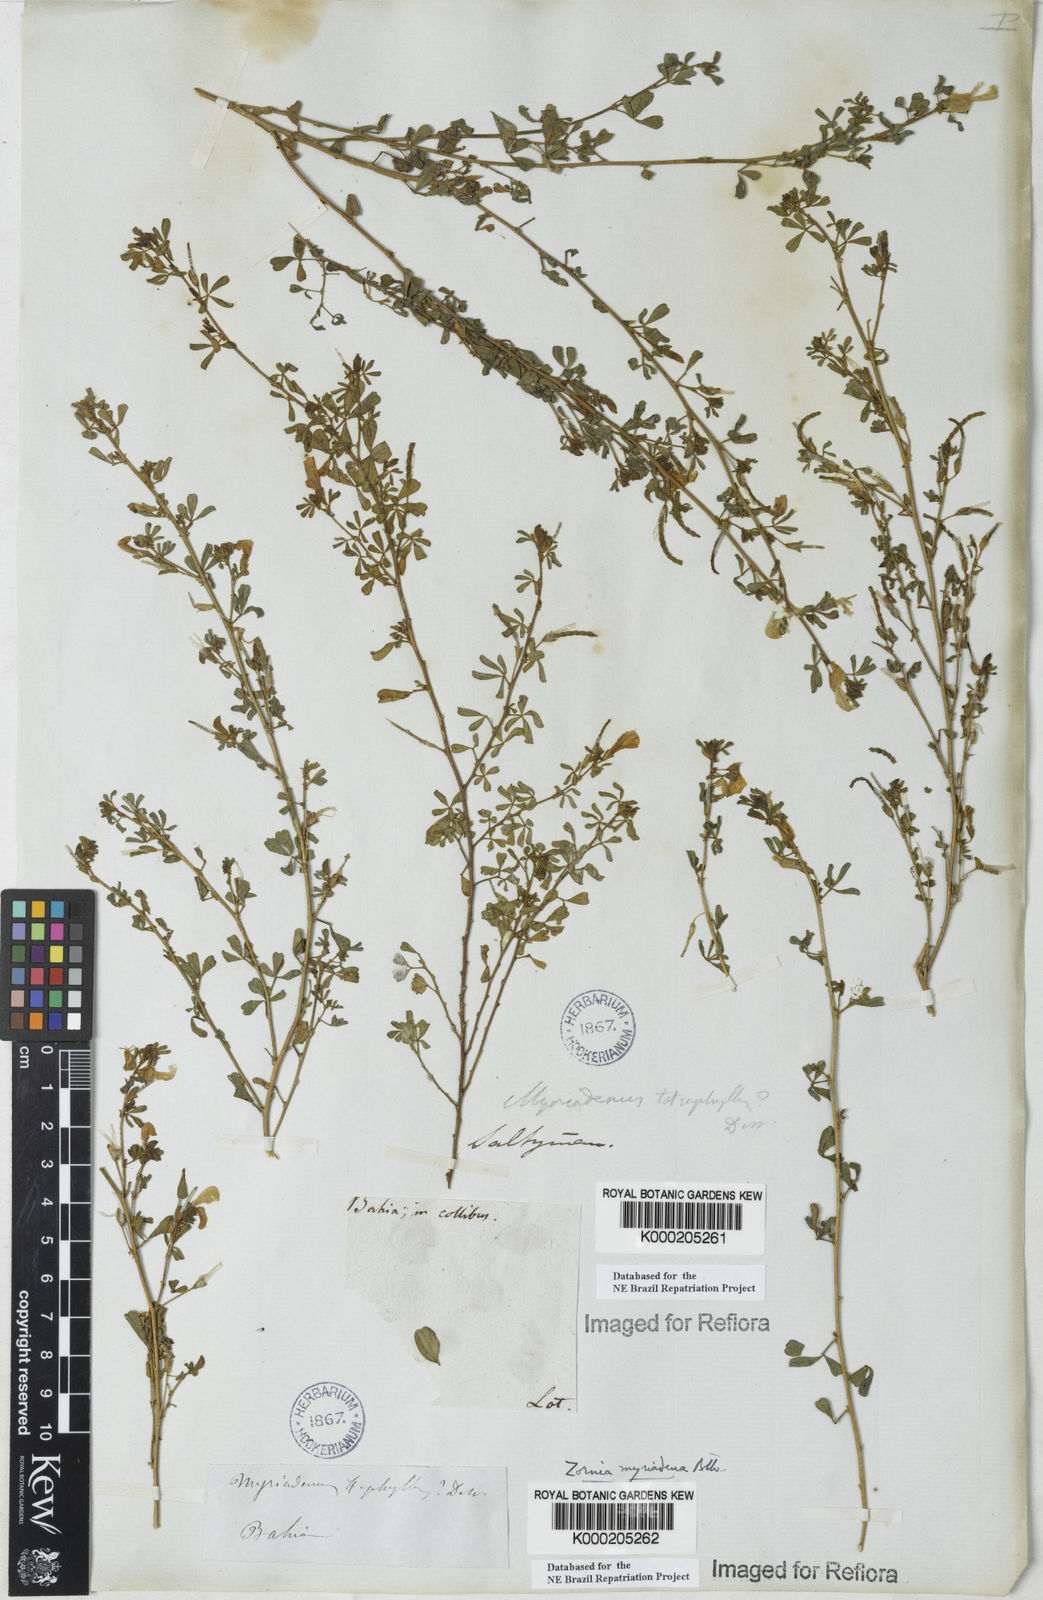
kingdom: Plantae
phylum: Tracheophyta
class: Magnoliopsida
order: Fabales
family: Fabaceae
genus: Zornia
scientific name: Zornia myriadena
